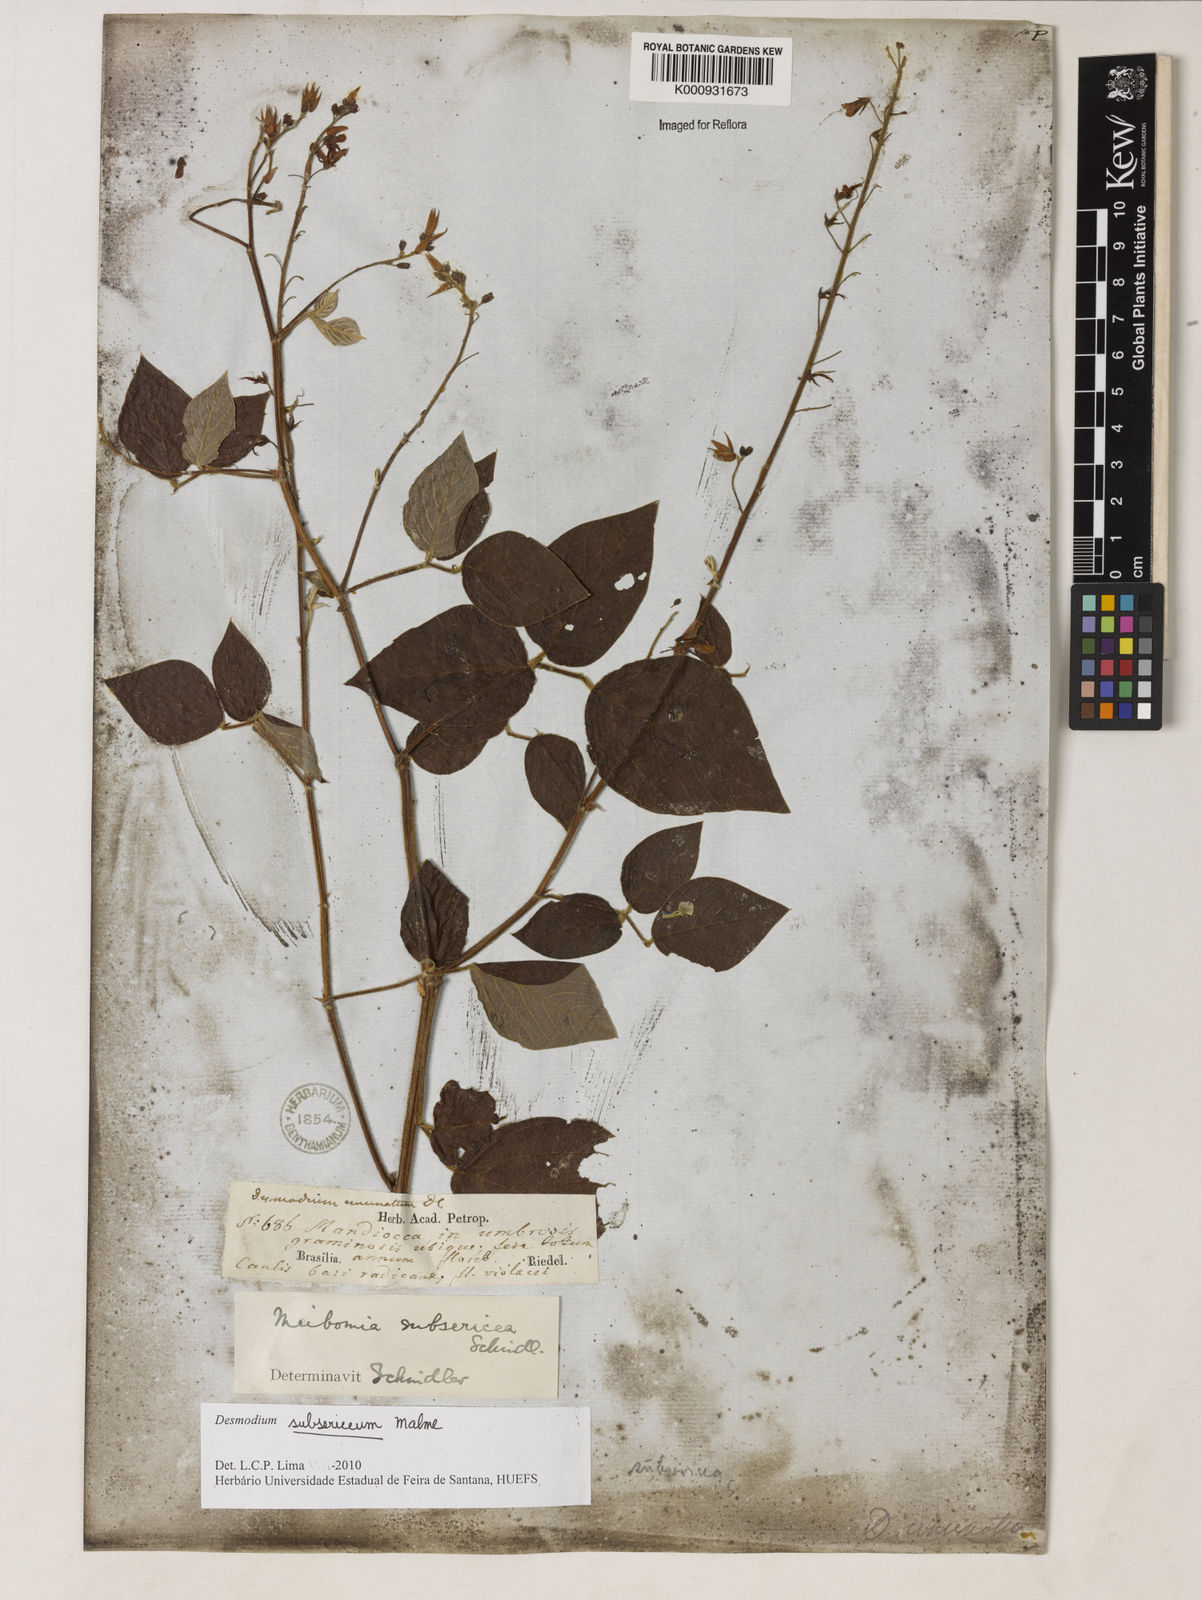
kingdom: Plantae
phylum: Tracheophyta
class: Magnoliopsida
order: Fabales
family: Fabaceae
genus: Desmodium
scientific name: Desmodium subsericeum
